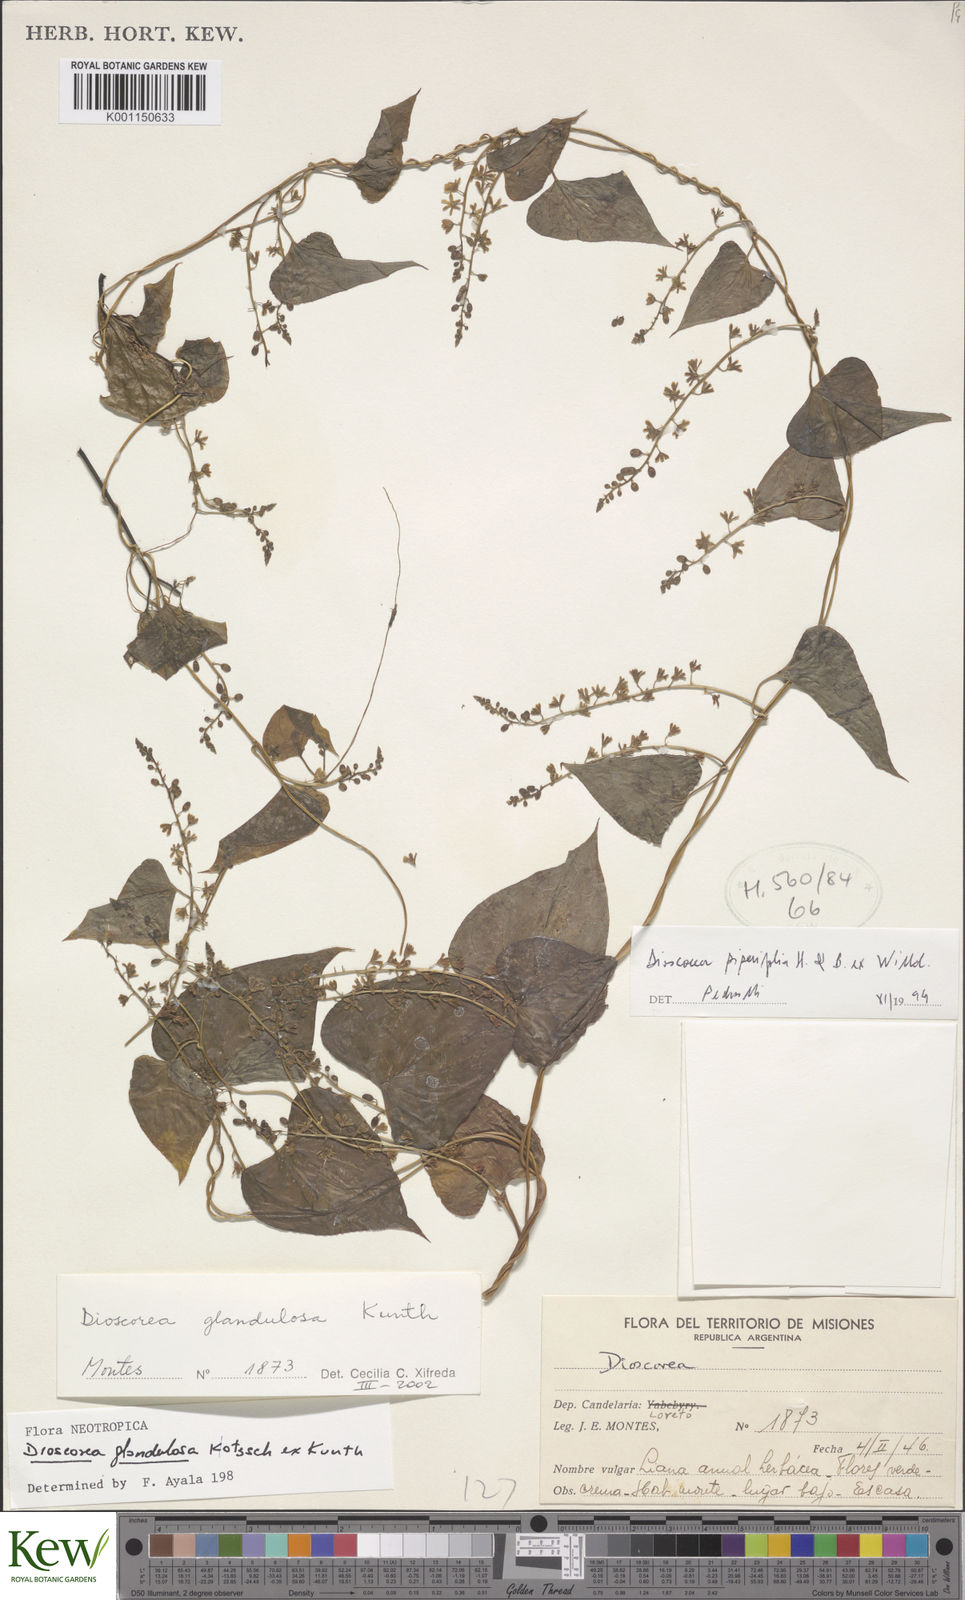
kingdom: Plantae
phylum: Tracheophyta
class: Liliopsida
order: Dioscoreales
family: Dioscoreaceae
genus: Dioscorea
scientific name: Dioscorea glandulosa
